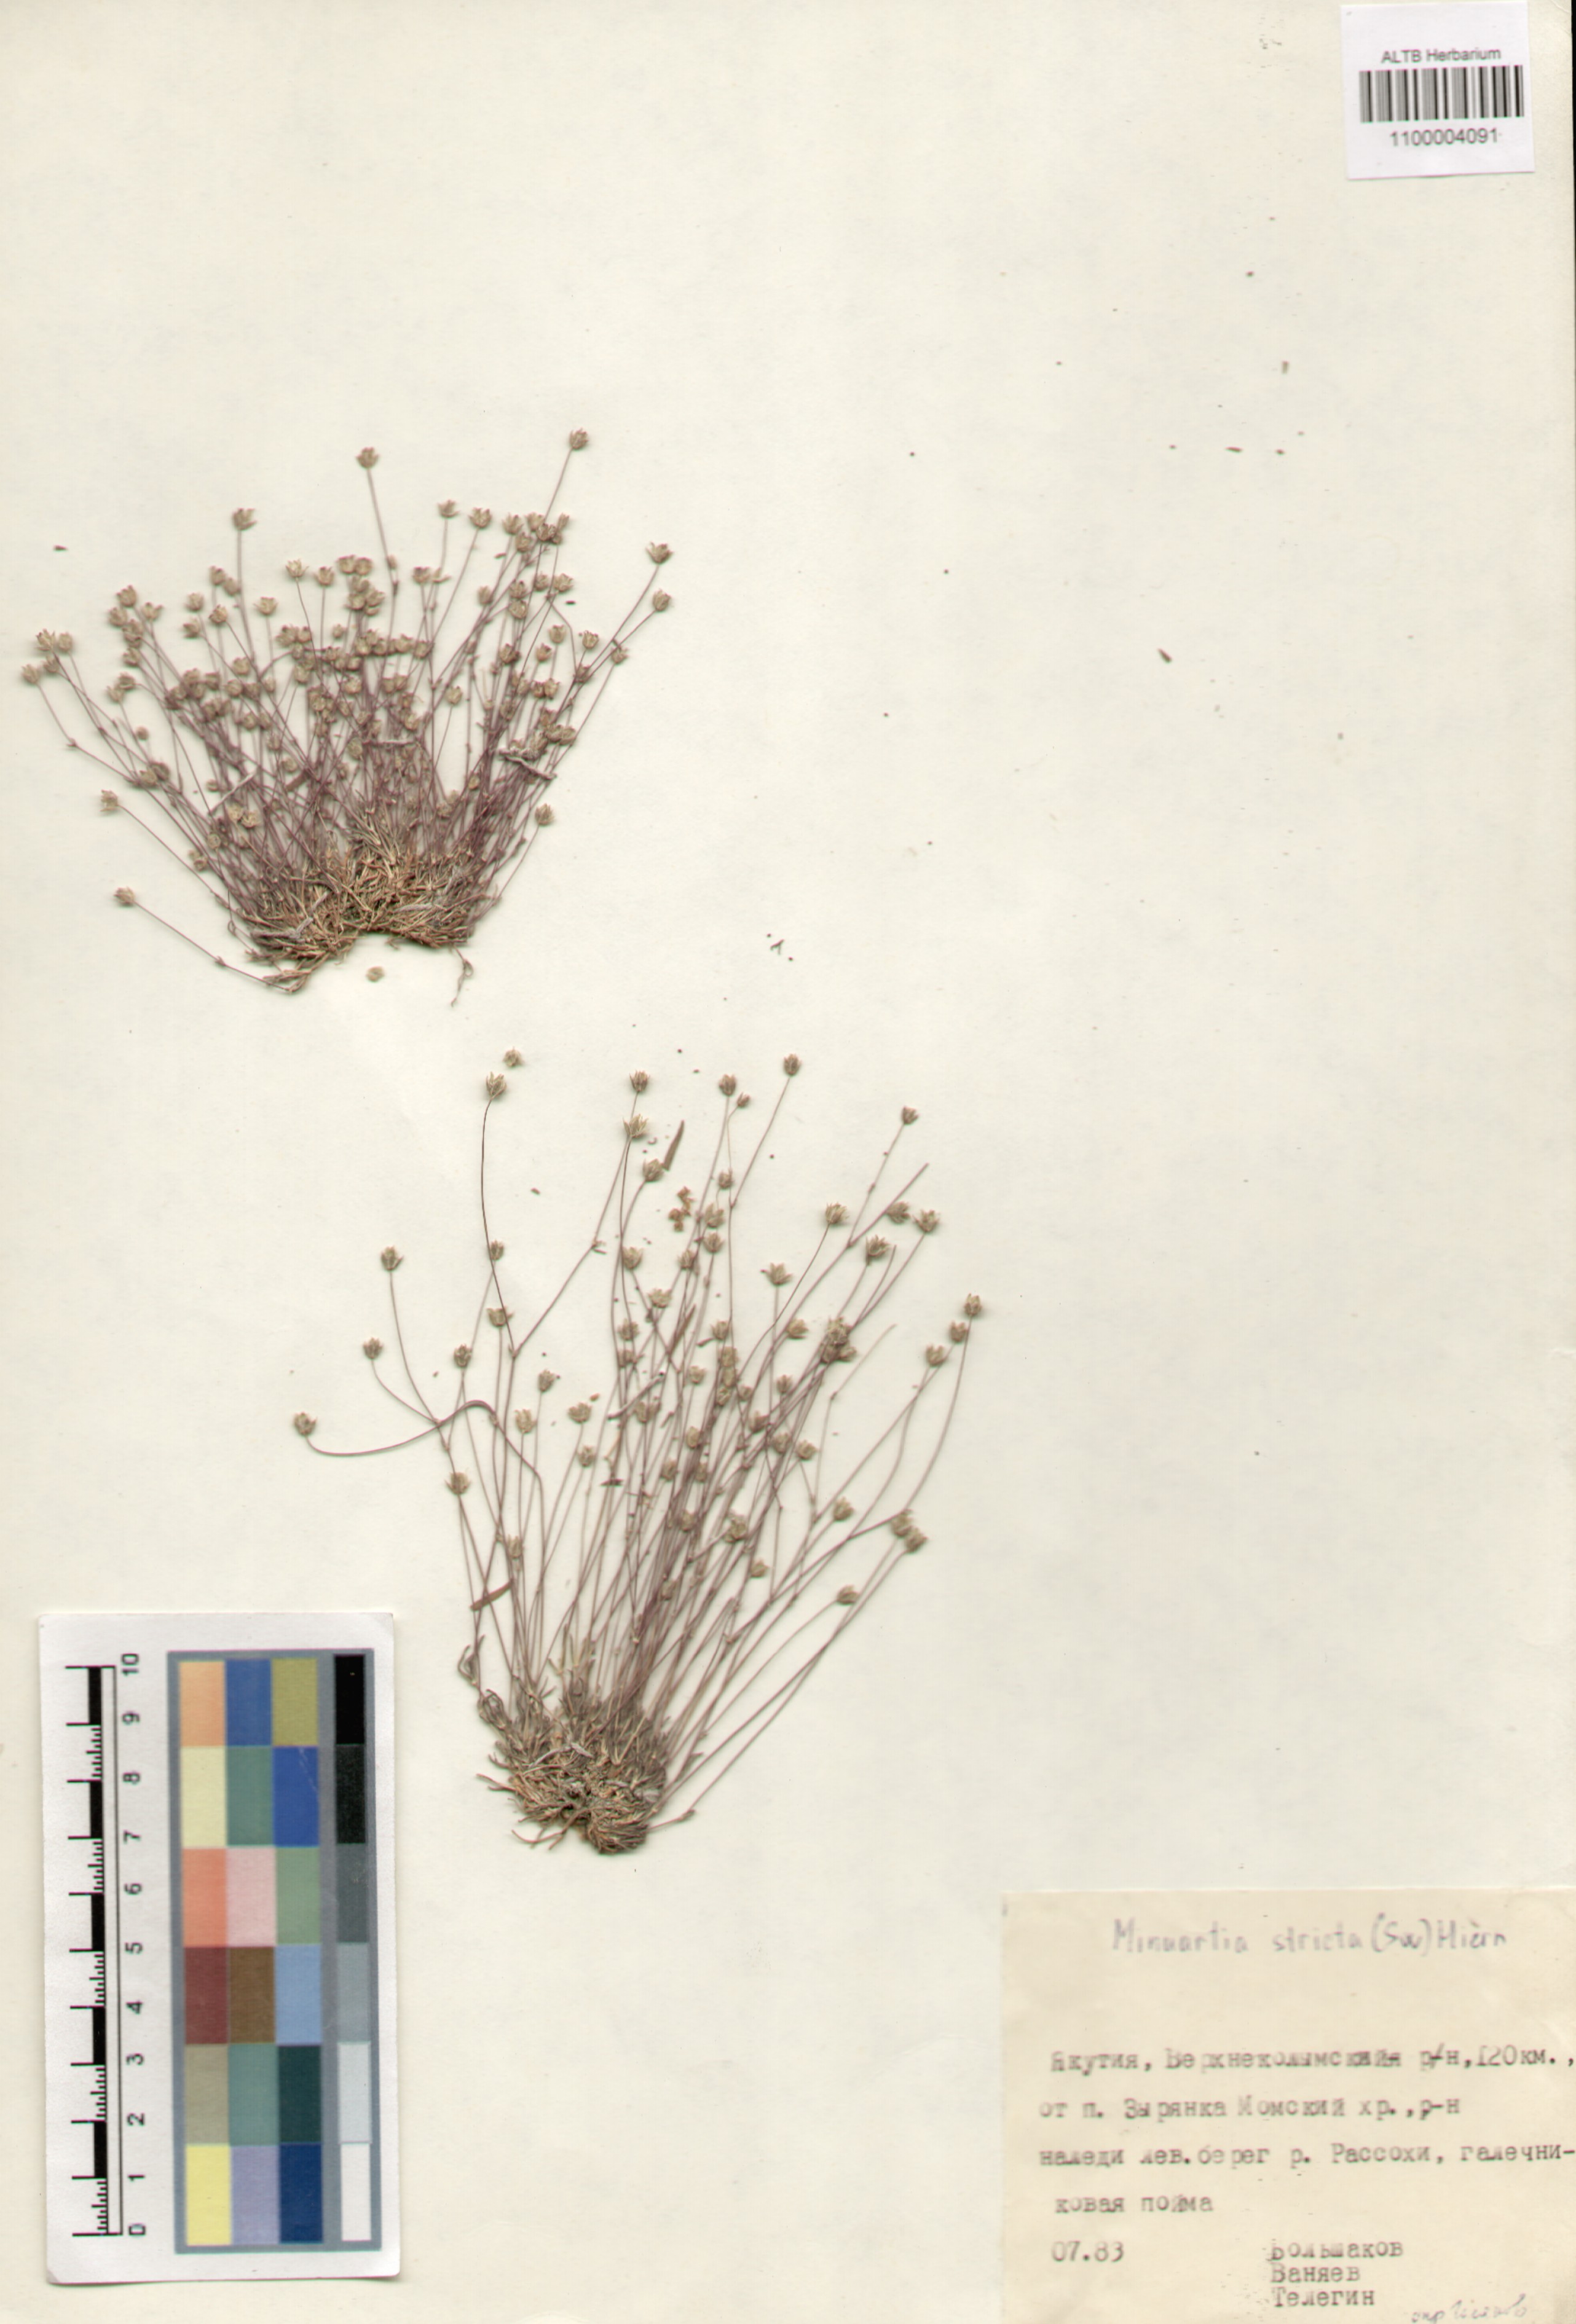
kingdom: Plantae
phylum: Tracheophyta
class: Magnoliopsida
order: Caryophyllales
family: Caryophyllaceae
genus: Sabulina
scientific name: Sabulina stricta
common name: Bog sandwort
